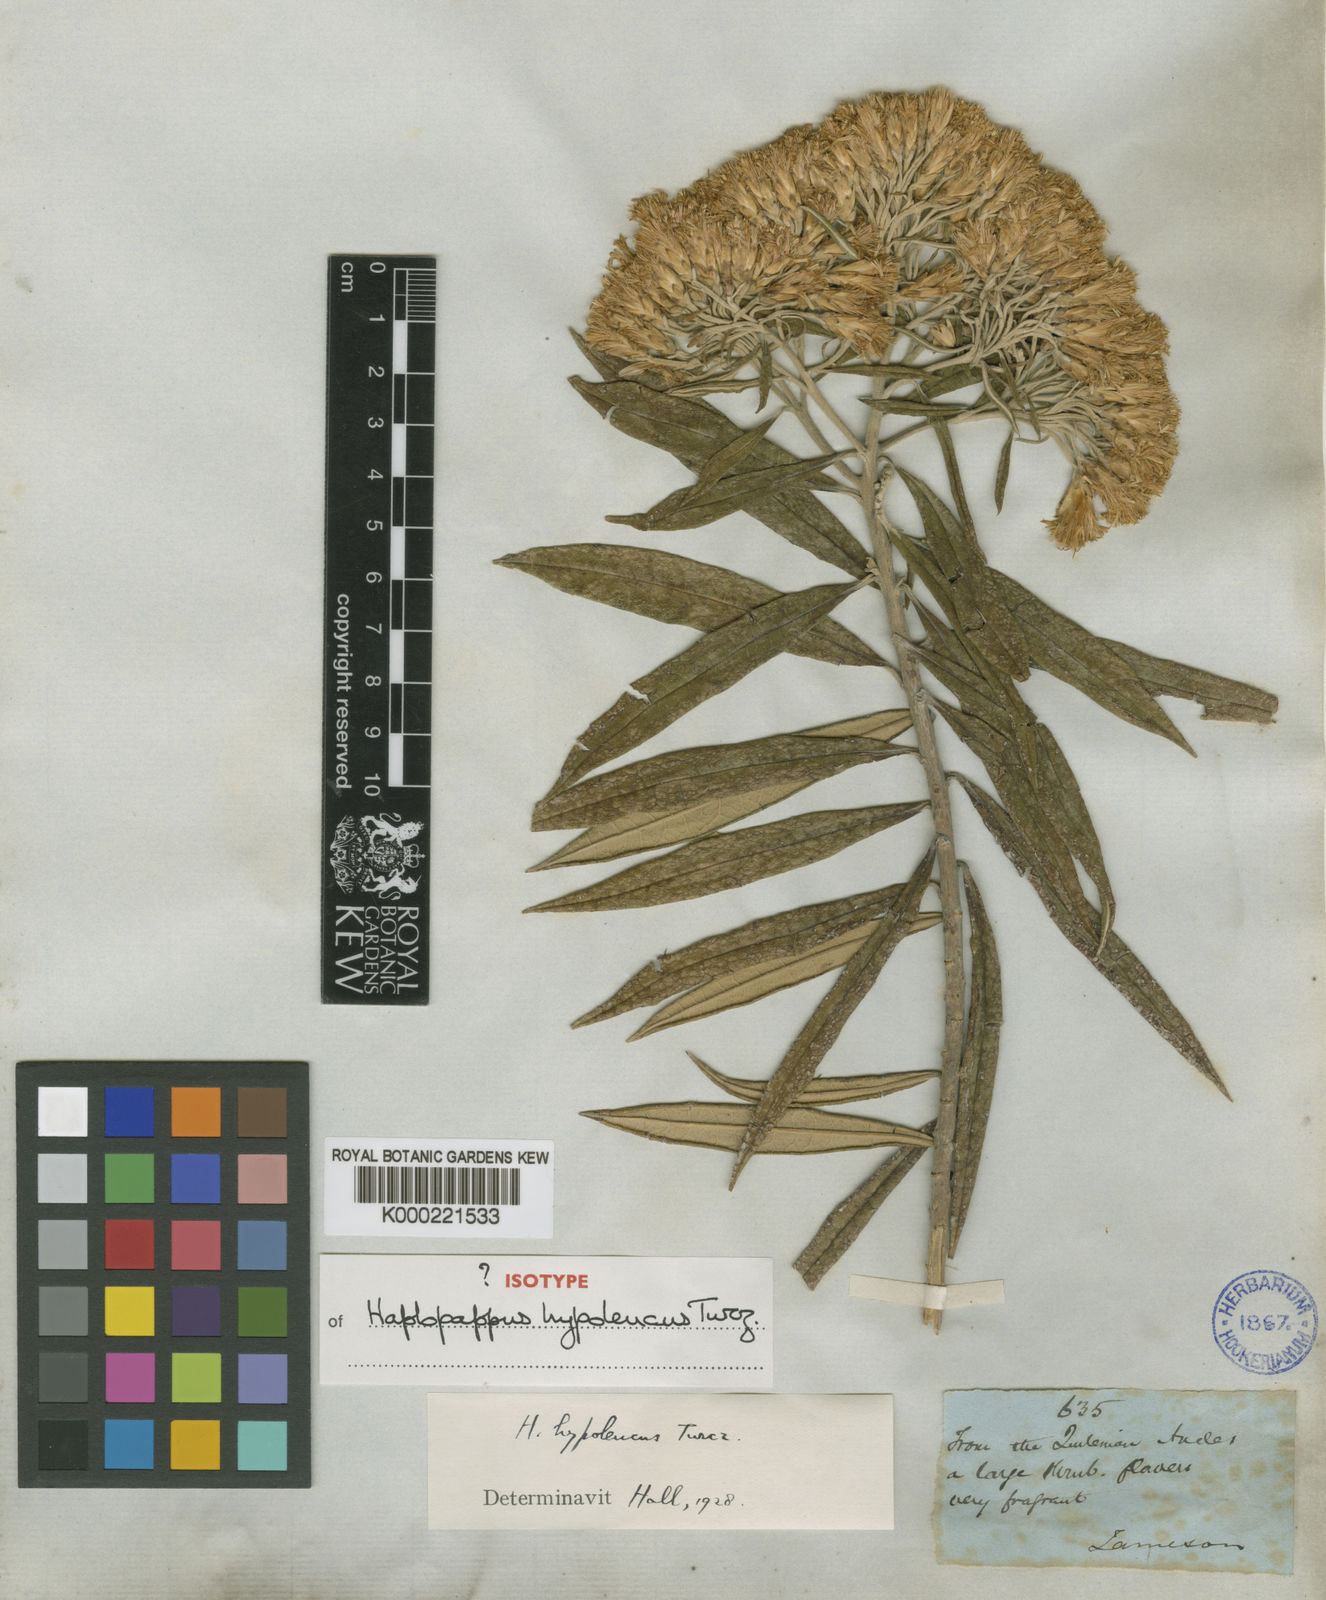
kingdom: Plantae
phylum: Tracheophyta
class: Magnoliopsida
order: Asterales
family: Asteraceae
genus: Llerasia
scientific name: Llerasia hypoleuca
